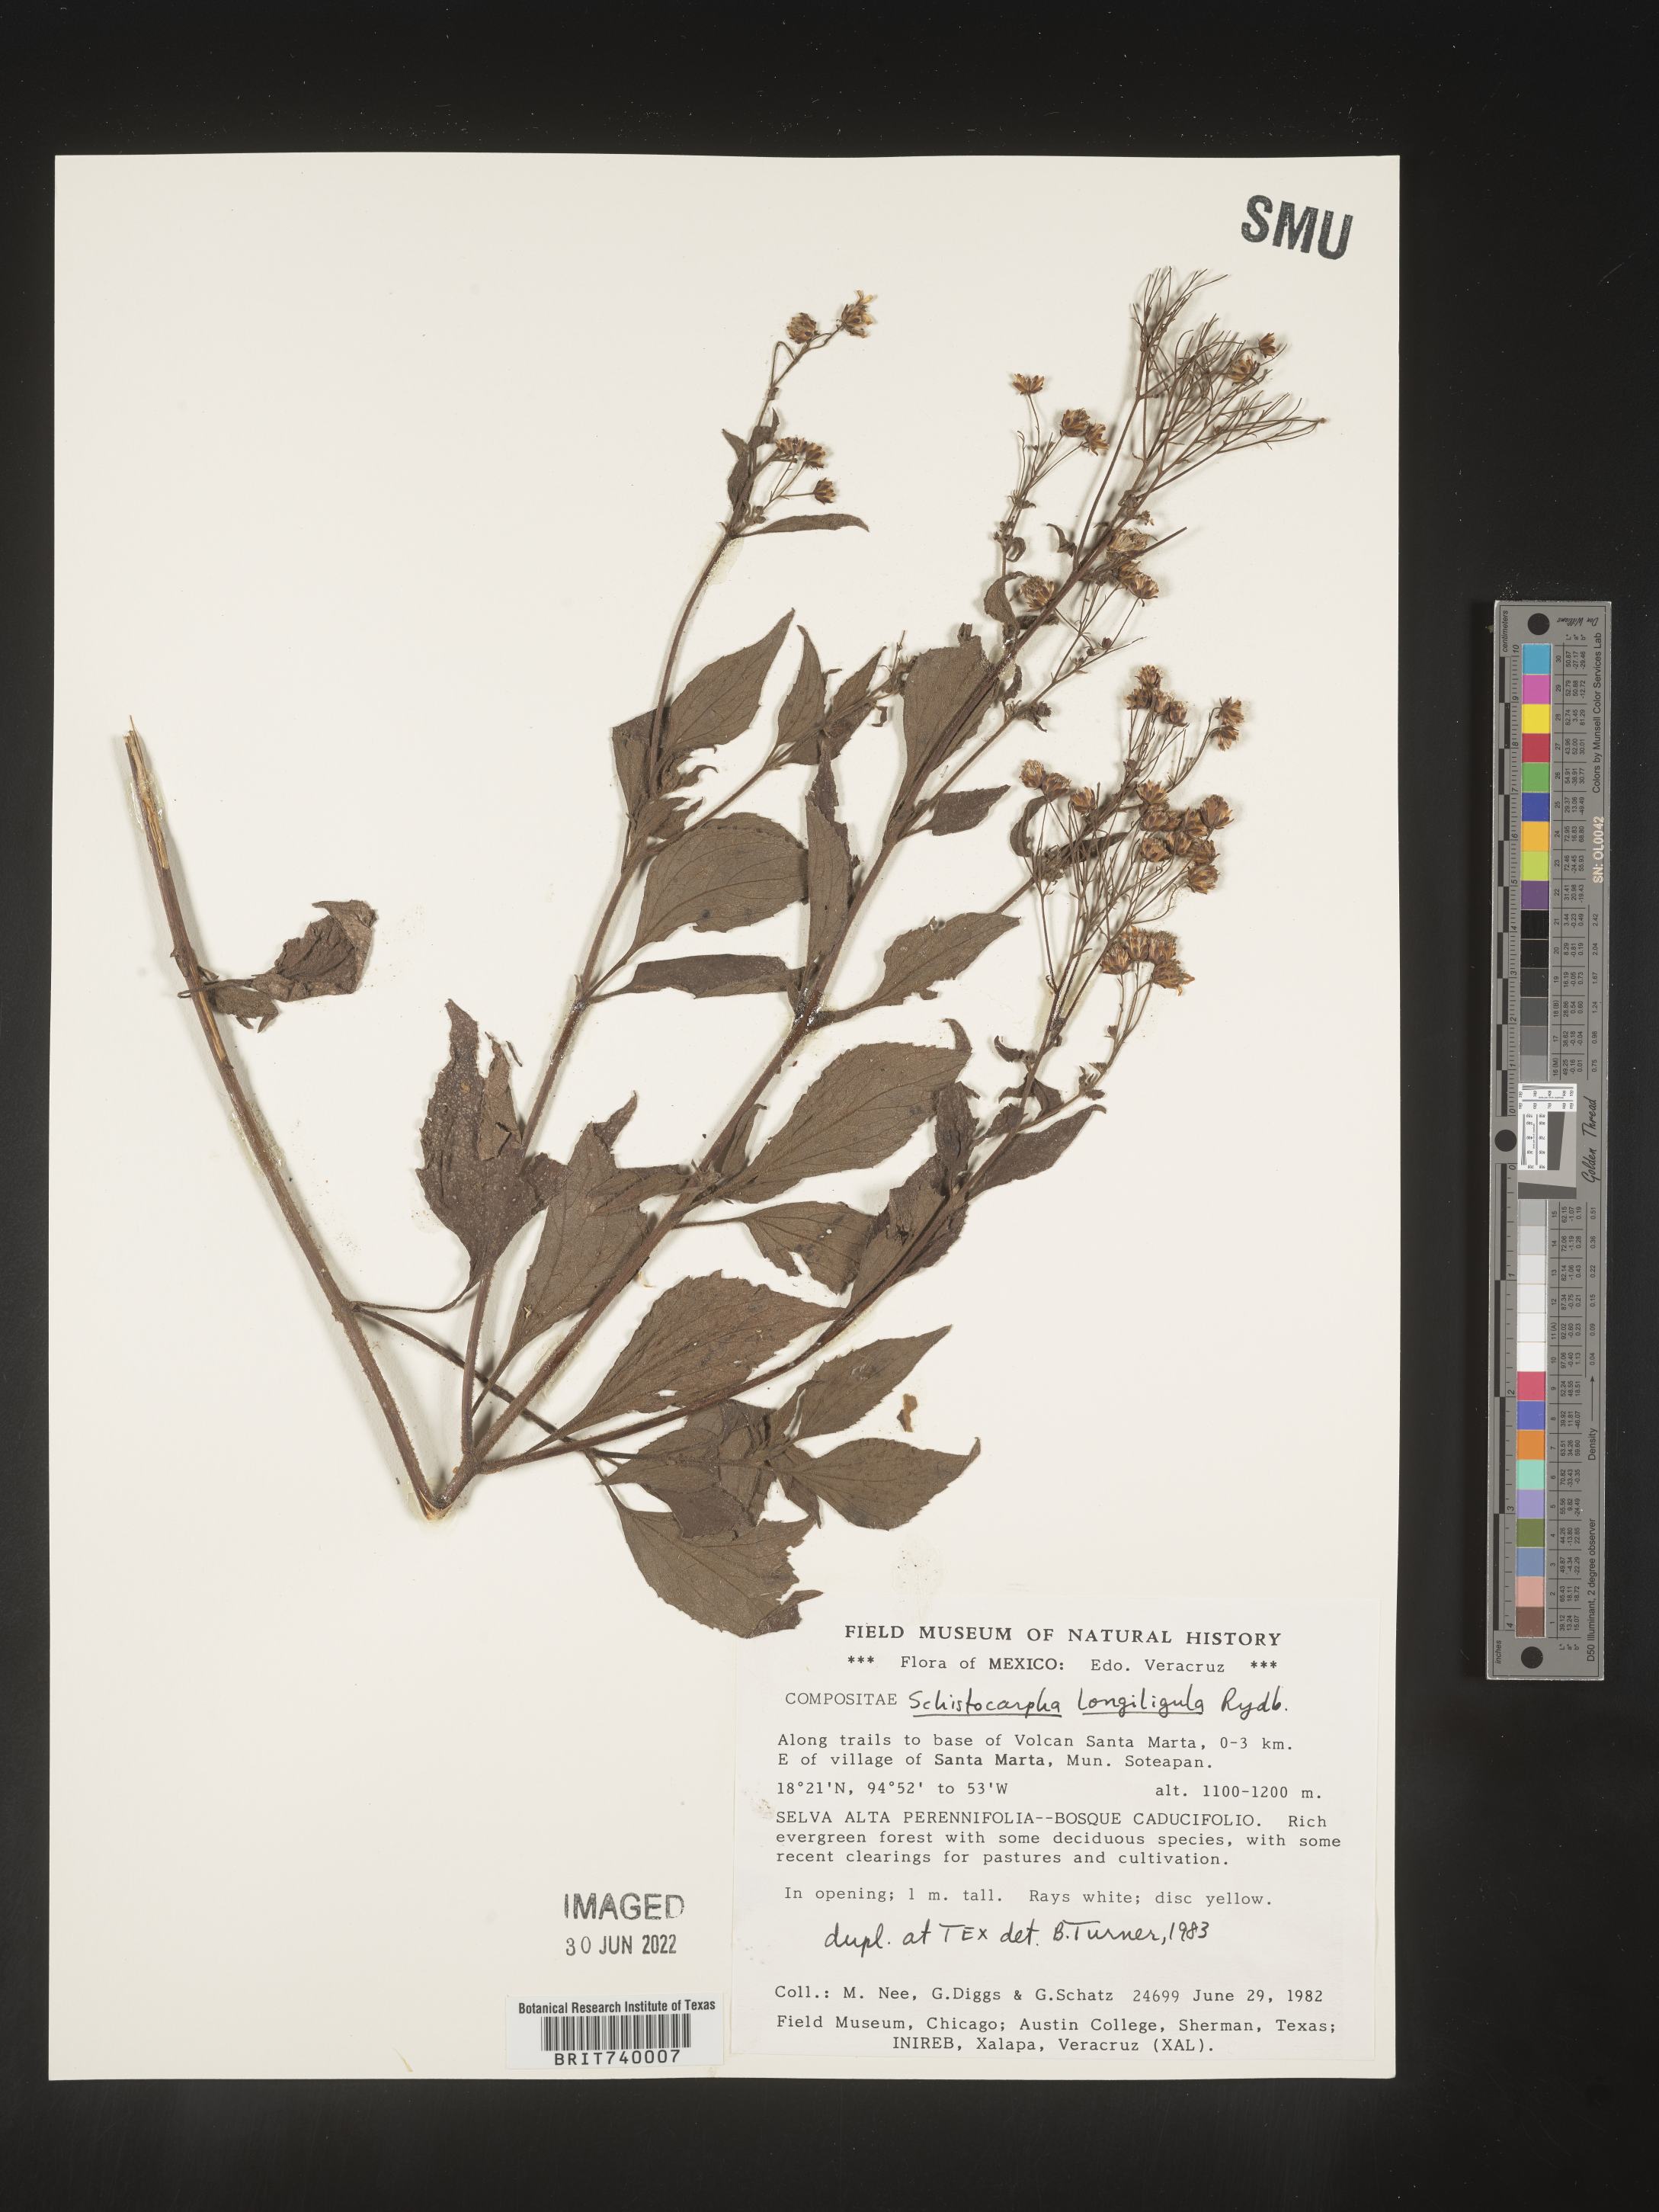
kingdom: Plantae
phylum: Tracheophyta
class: Magnoliopsida
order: Asterales
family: Asteraceae
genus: Schistocarpha
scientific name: Schistocarpha
